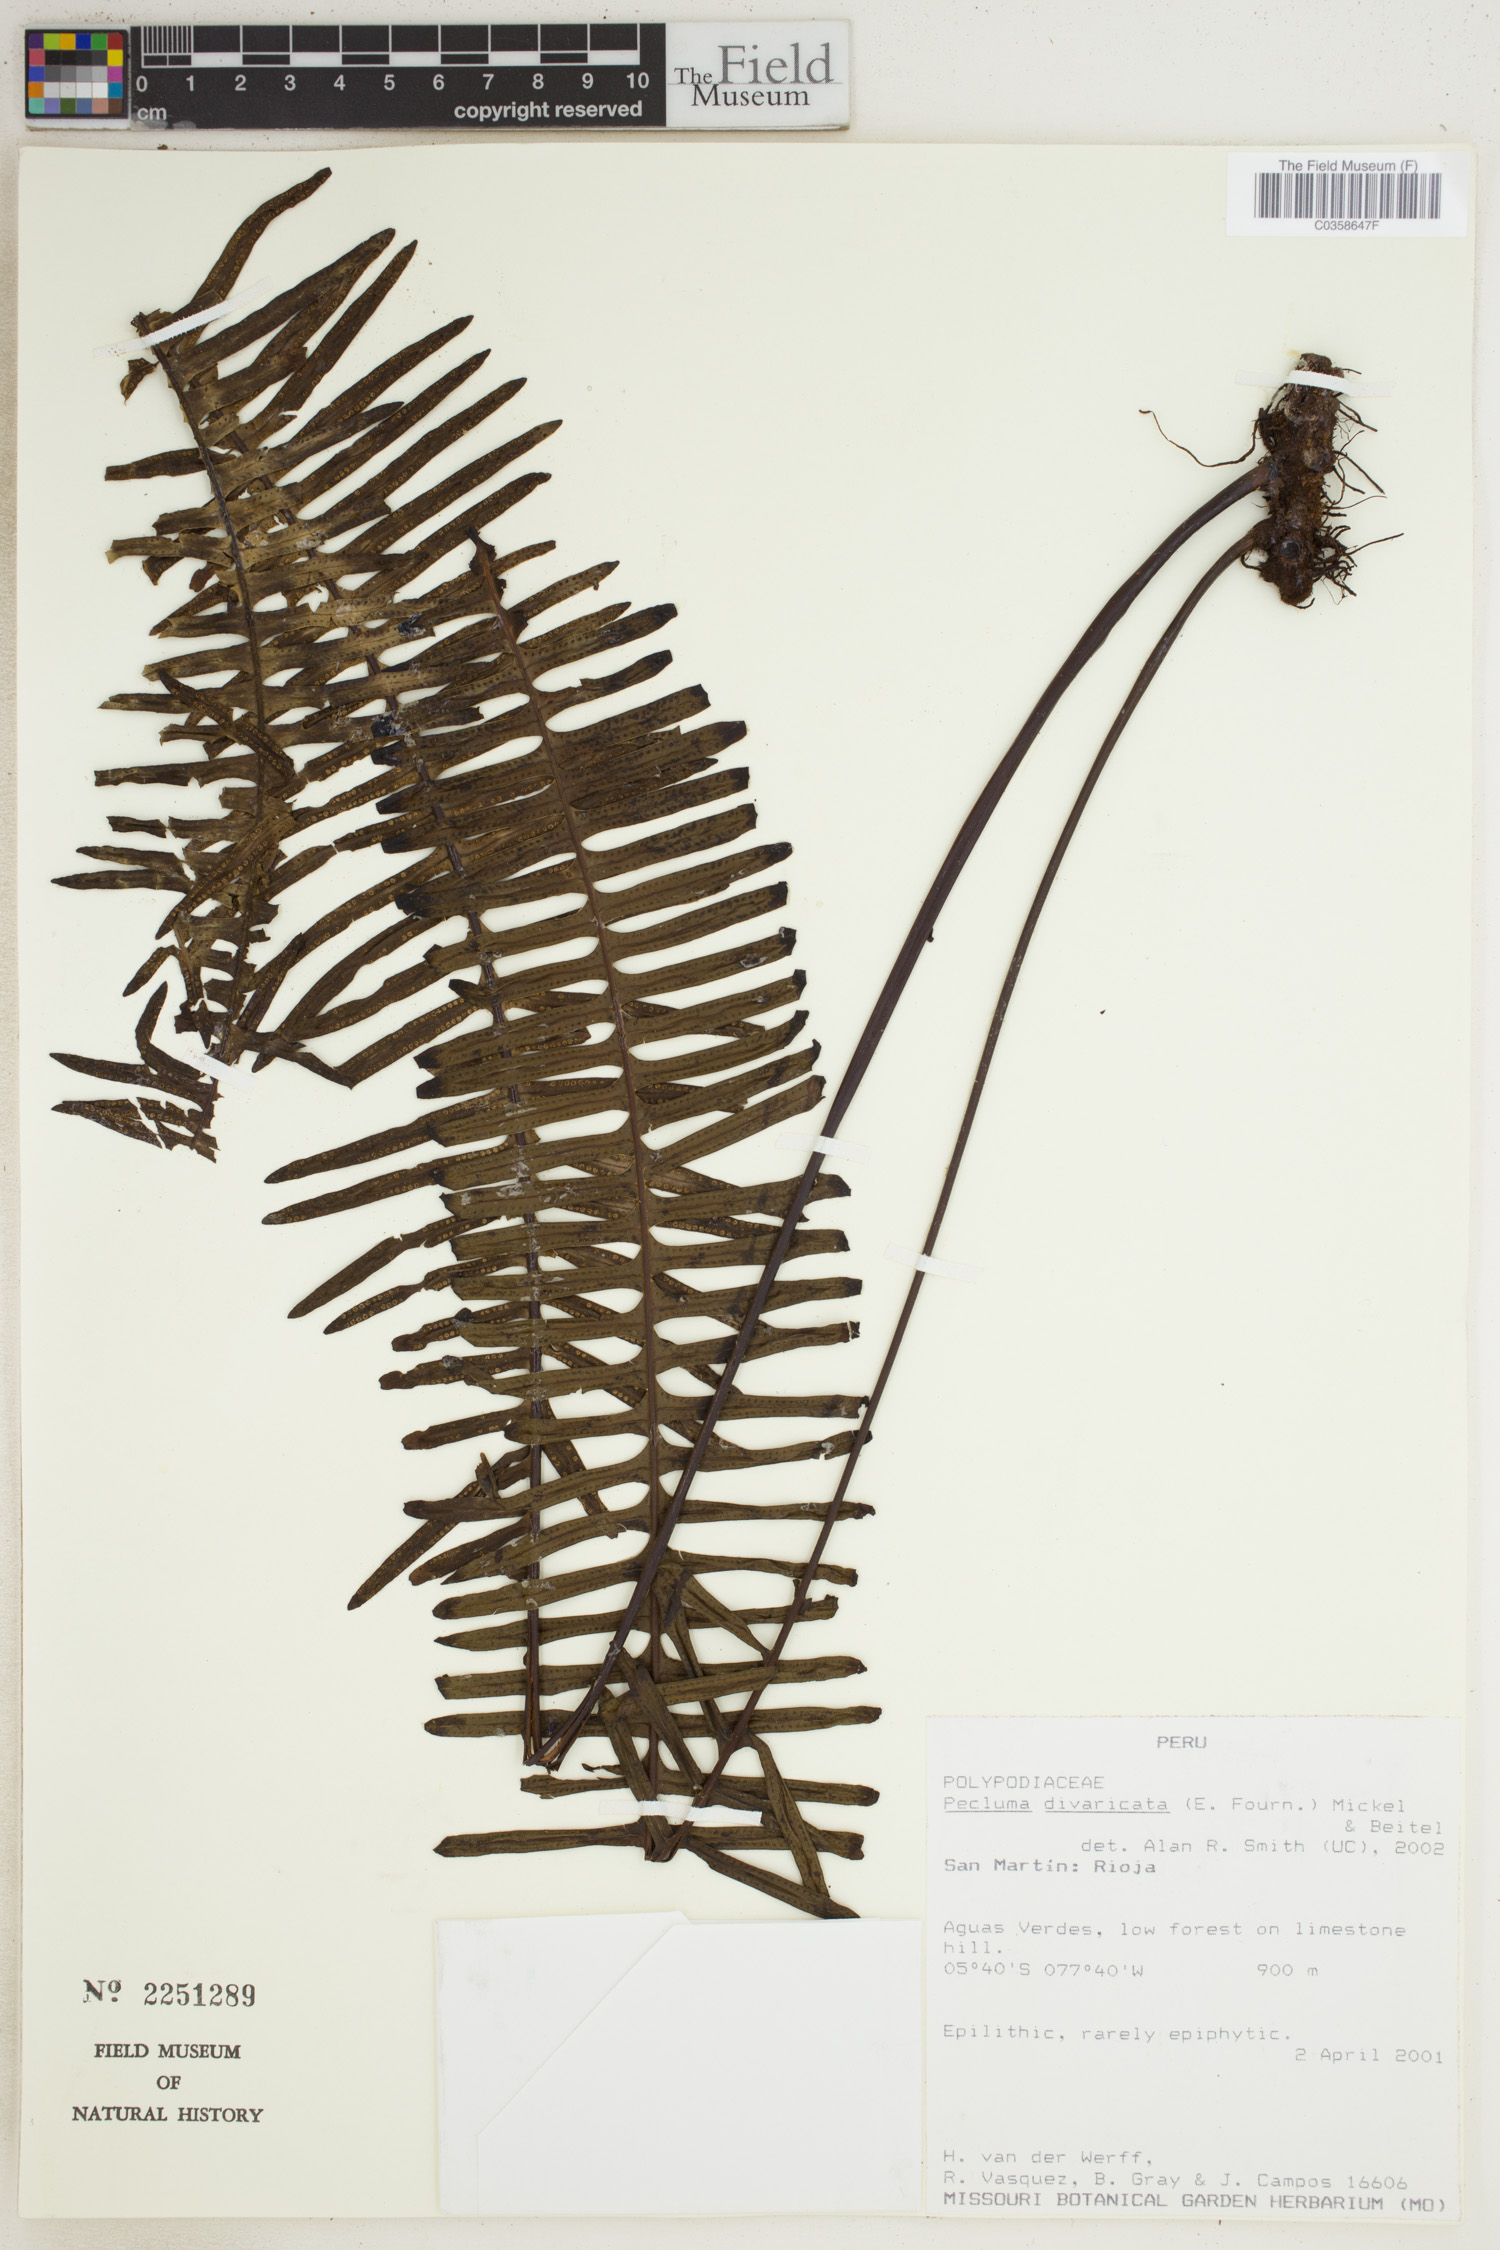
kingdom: Plantae
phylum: Tracheophyta
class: Polypodiopsida
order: Polypodiales
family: Polypodiaceae
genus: Pecluma
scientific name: Pecluma divaricata
